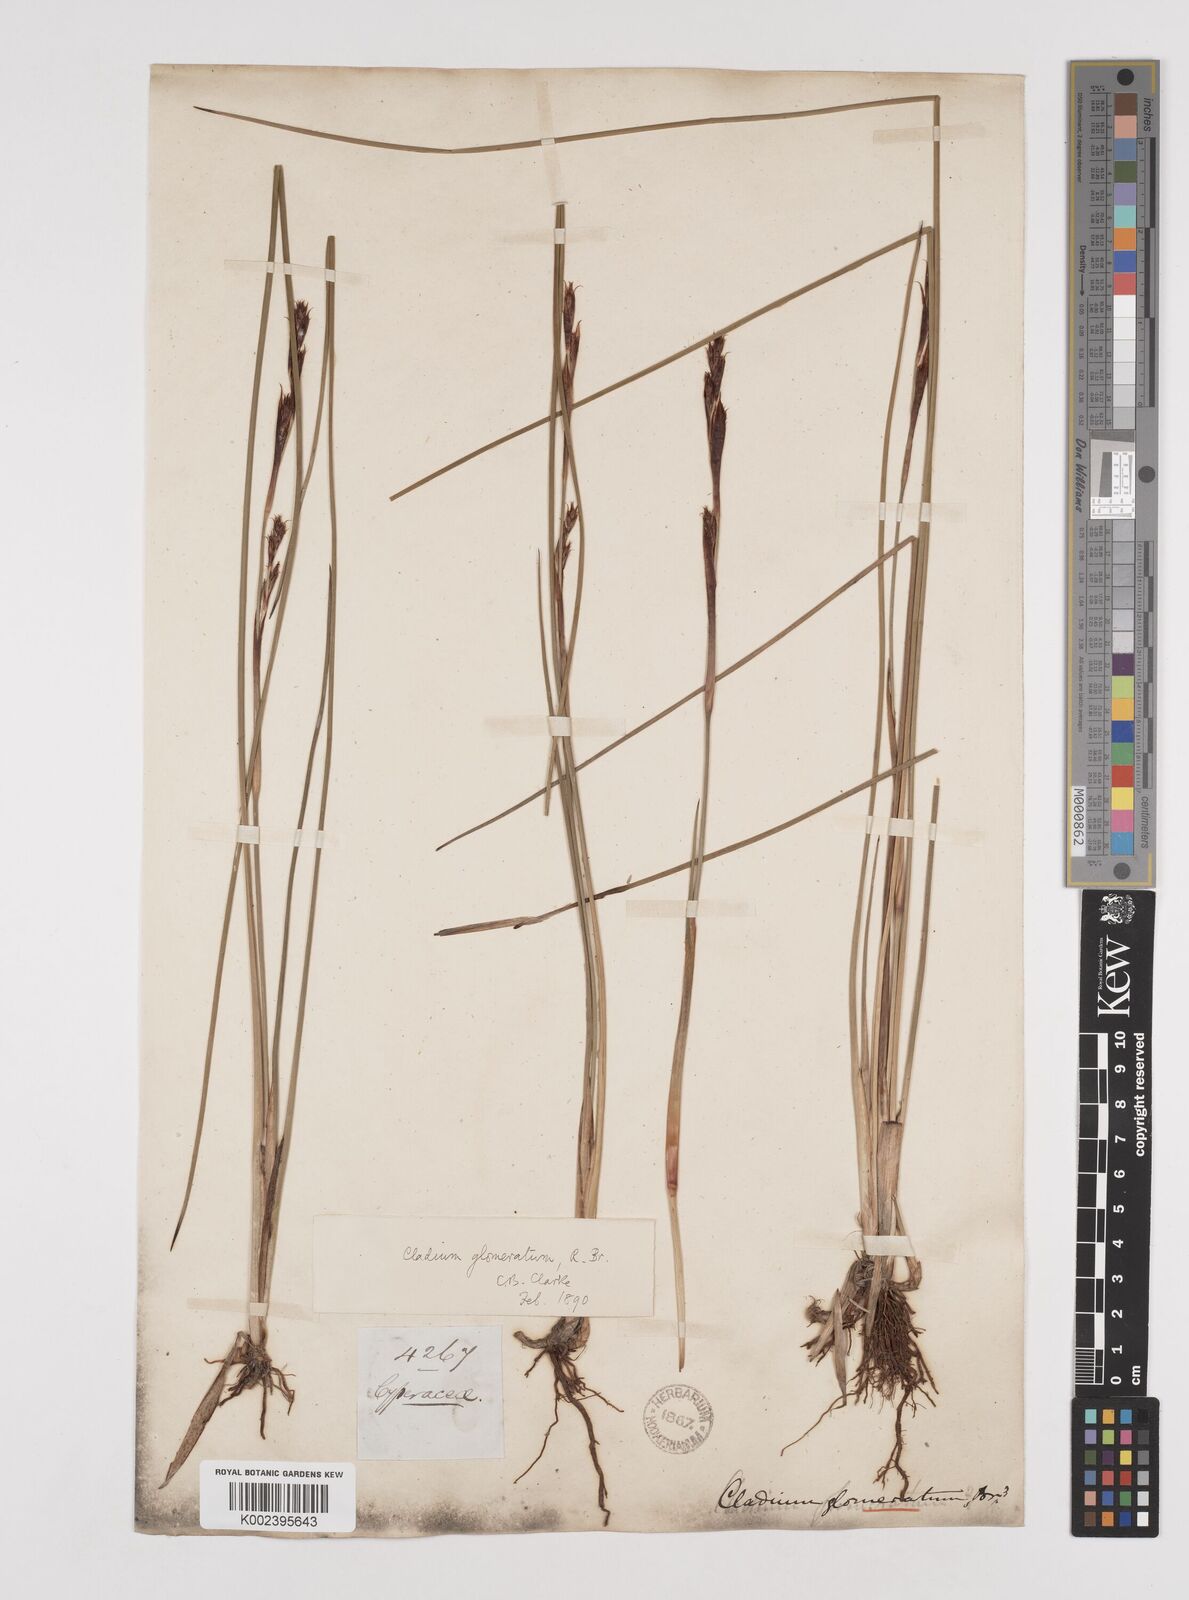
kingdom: Plantae
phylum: Tracheophyta
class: Liliopsida
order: Poales
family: Cyperaceae
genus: Machaerina
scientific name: Machaerina rubiginosa
